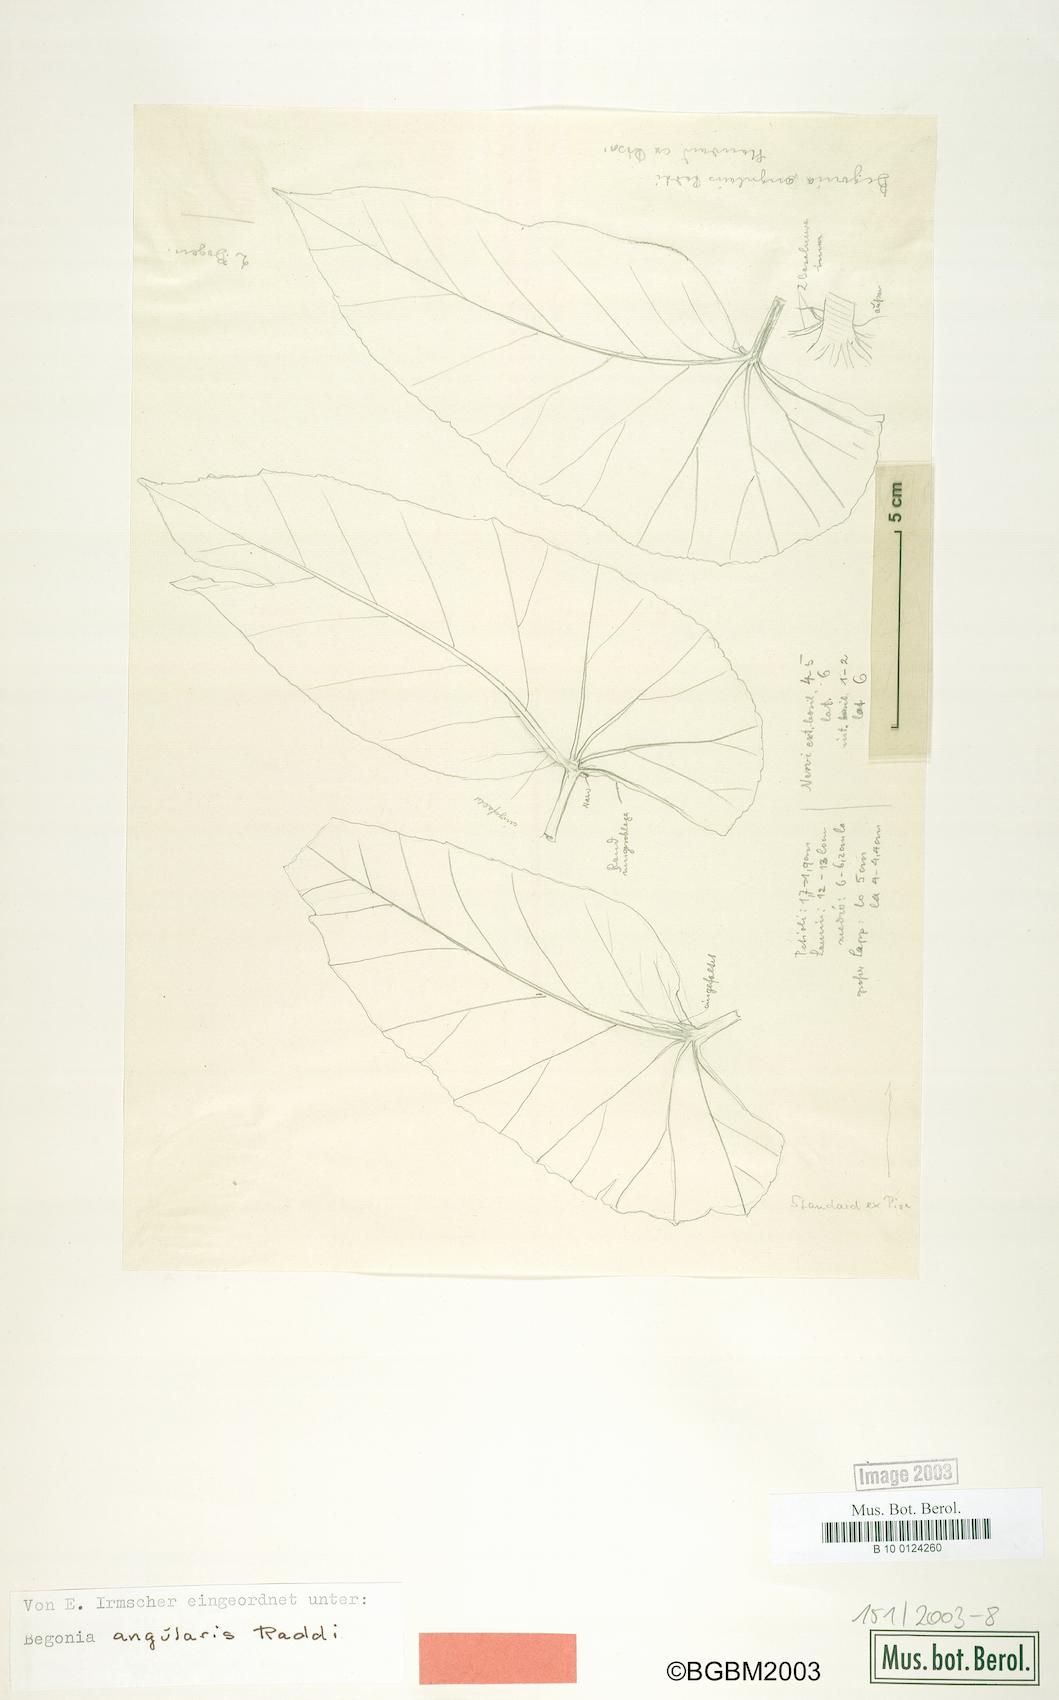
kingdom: Plantae
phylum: Tracheophyta
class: Magnoliopsida
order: Cucurbitales
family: Begoniaceae
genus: Begonia
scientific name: Begonia angularis
